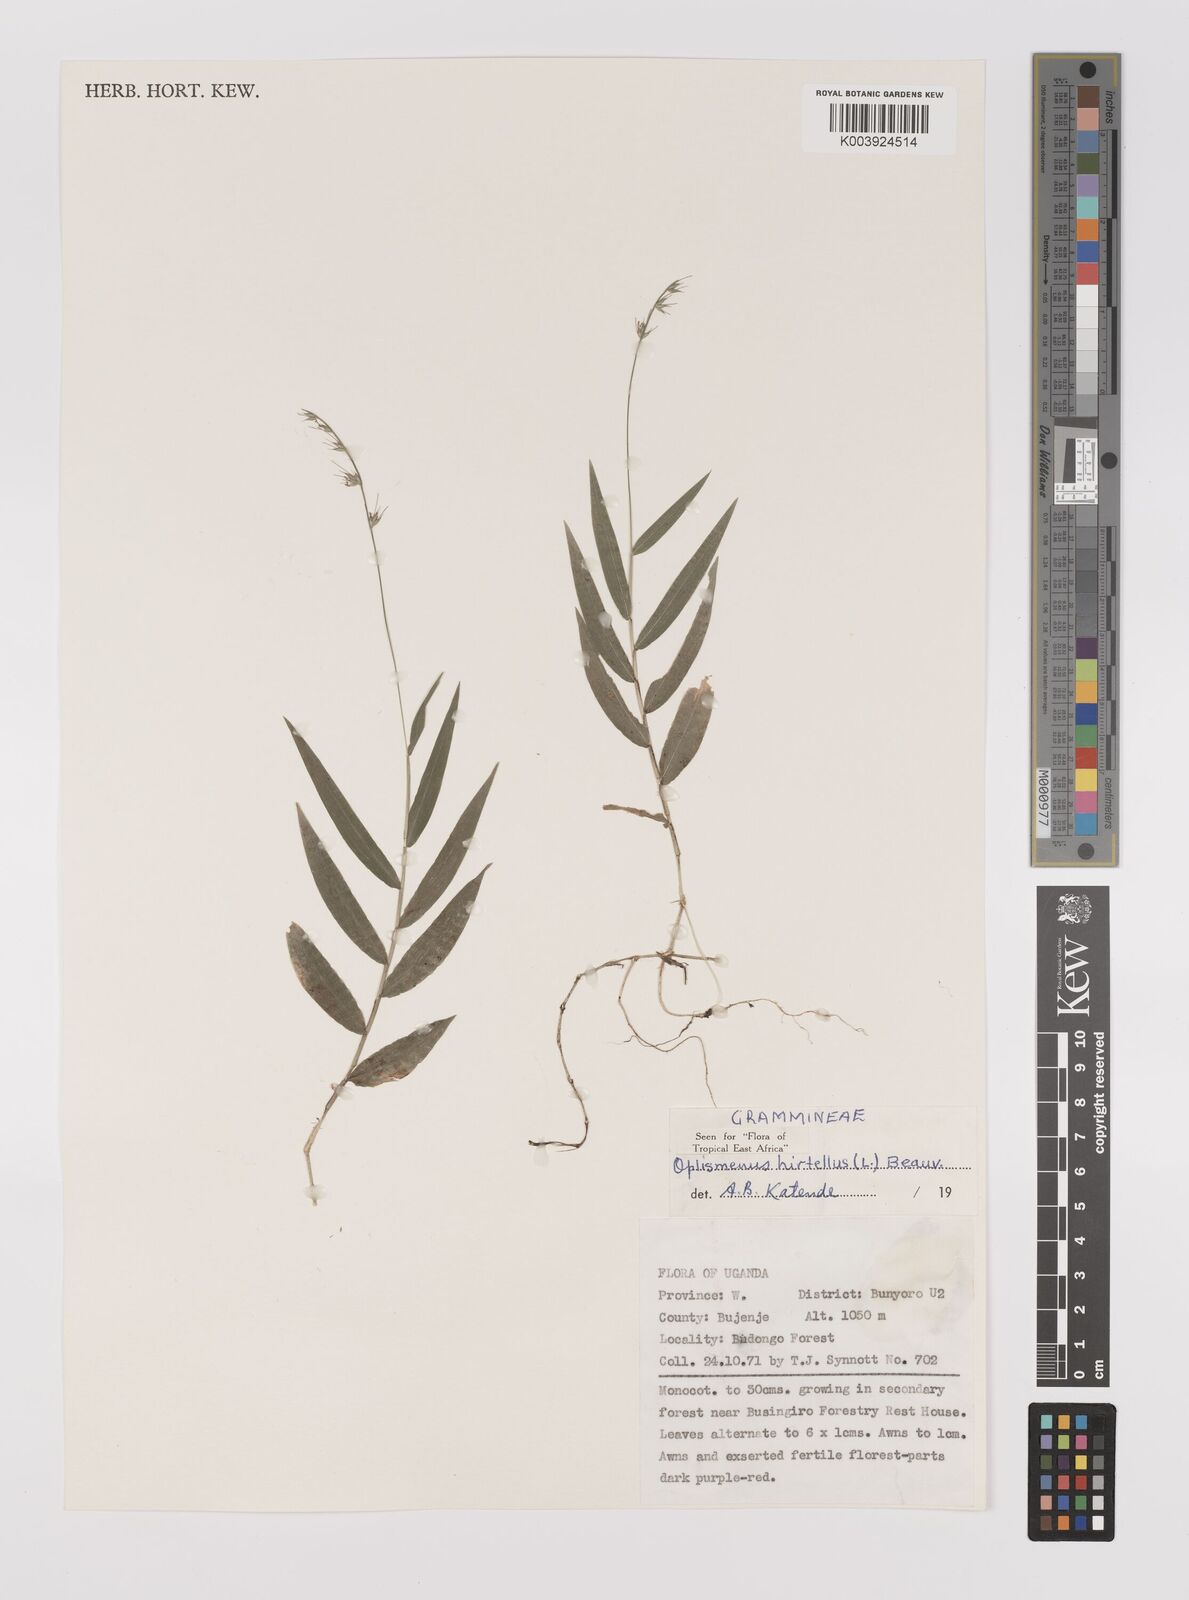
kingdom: Plantae
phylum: Tracheophyta
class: Liliopsida
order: Poales
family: Poaceae
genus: Oplismenus
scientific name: Oplismenus hirtellus
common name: Basketgrass
